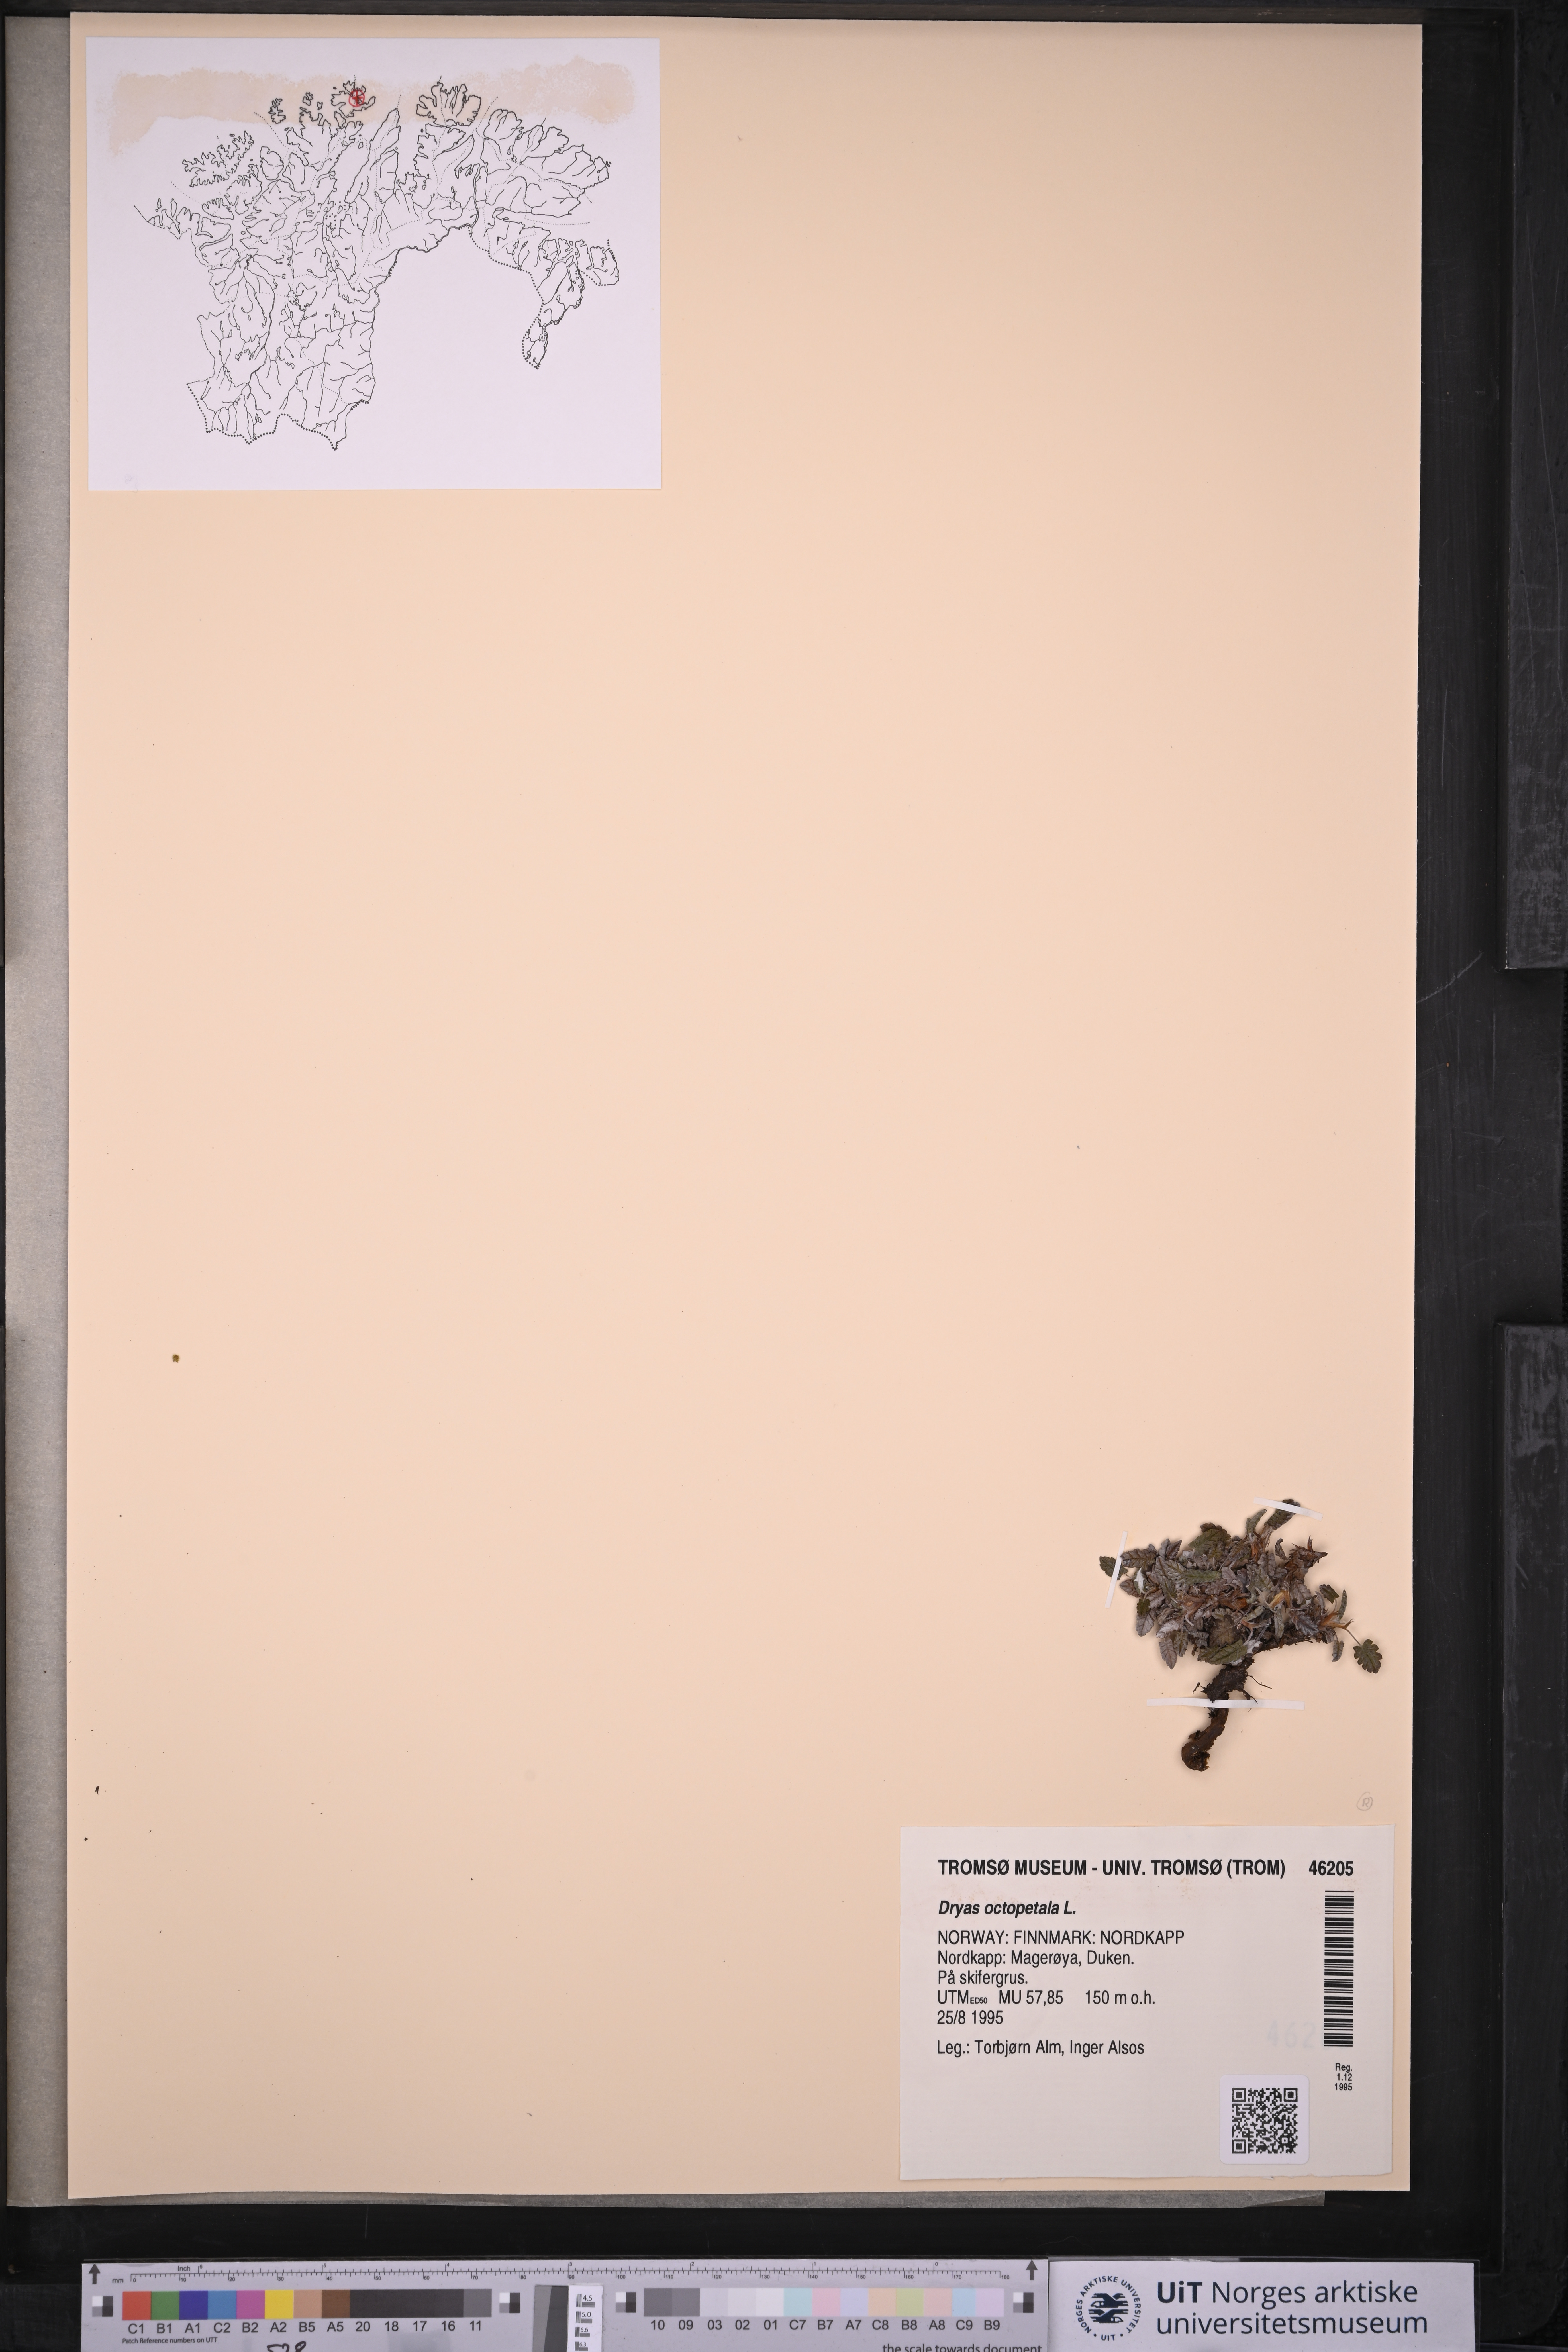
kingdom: Plantae
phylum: Tracheophyta
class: Magnoliopsida
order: Rosales
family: Rosaceae
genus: Dryas
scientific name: Dryas octopetala
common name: Eight-petal mountain-avens
